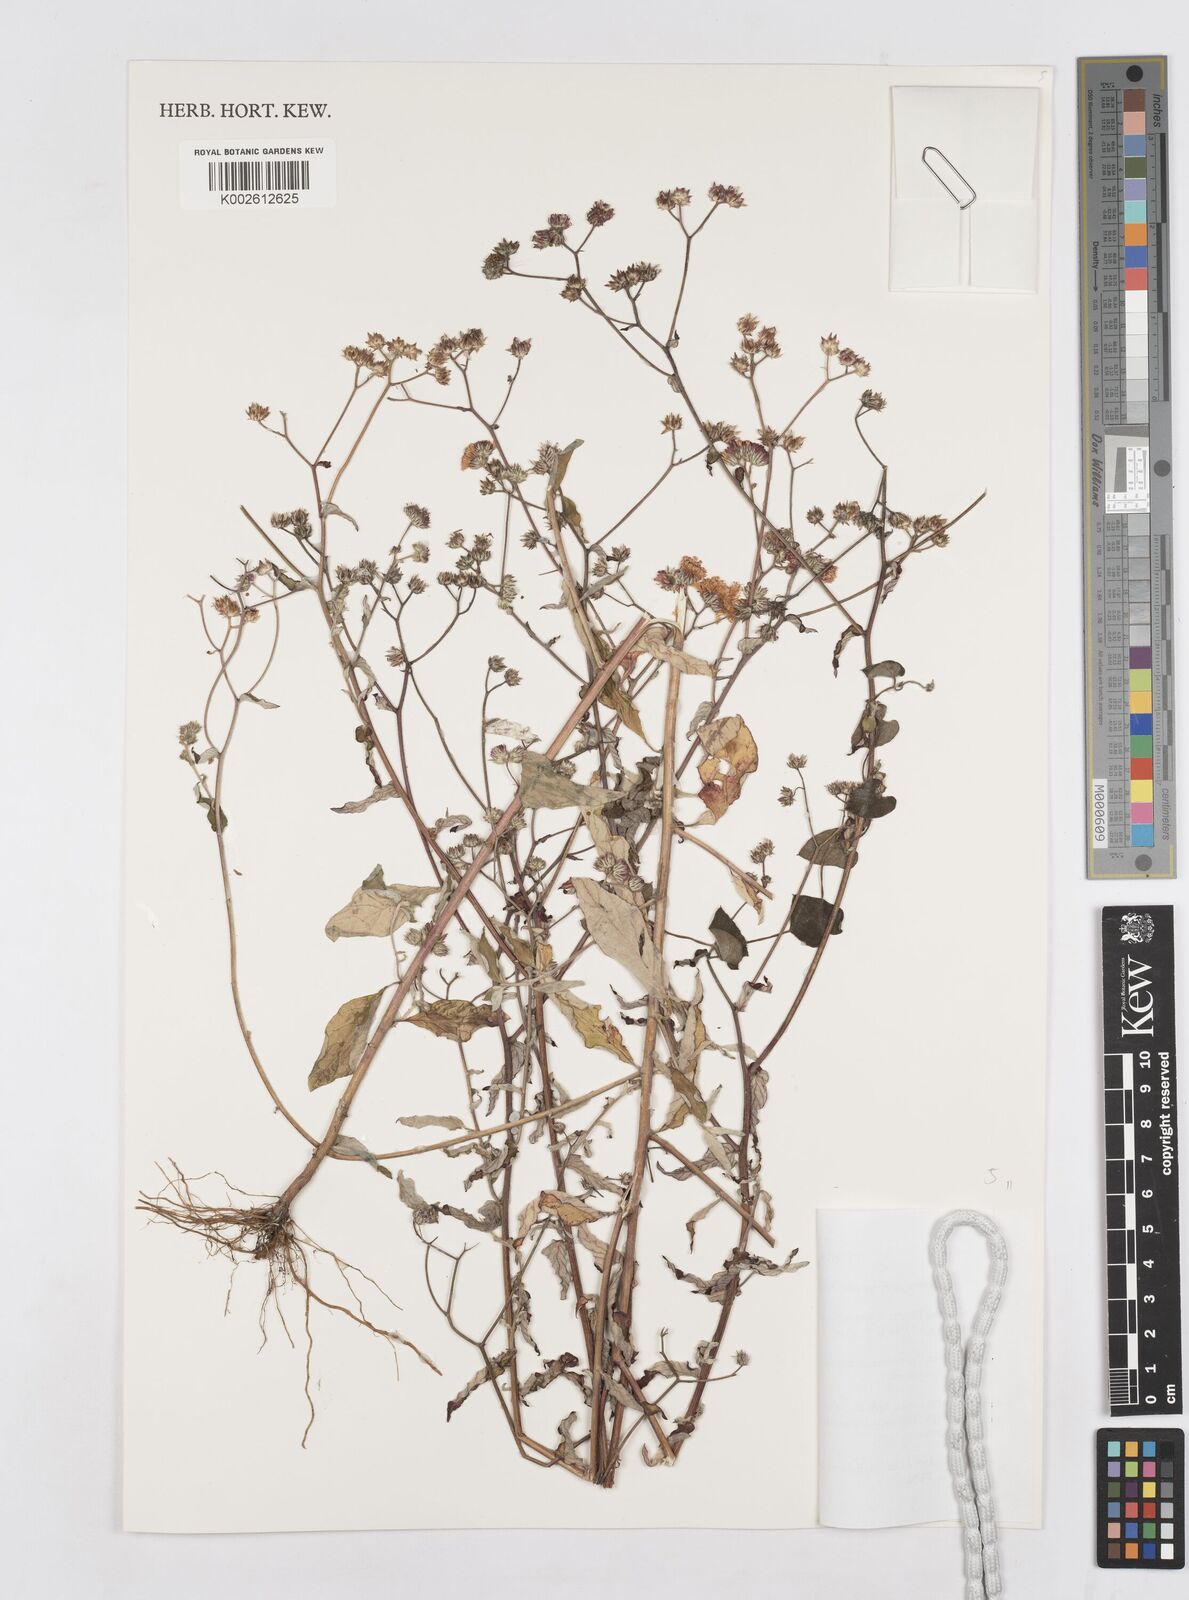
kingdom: Plantae
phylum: Tracheophyta
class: Magnoliopsida
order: Asterales
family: Asteraceae
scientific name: Asteraceae
